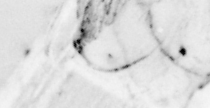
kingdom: Animalia
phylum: Chordata
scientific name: Chordata
